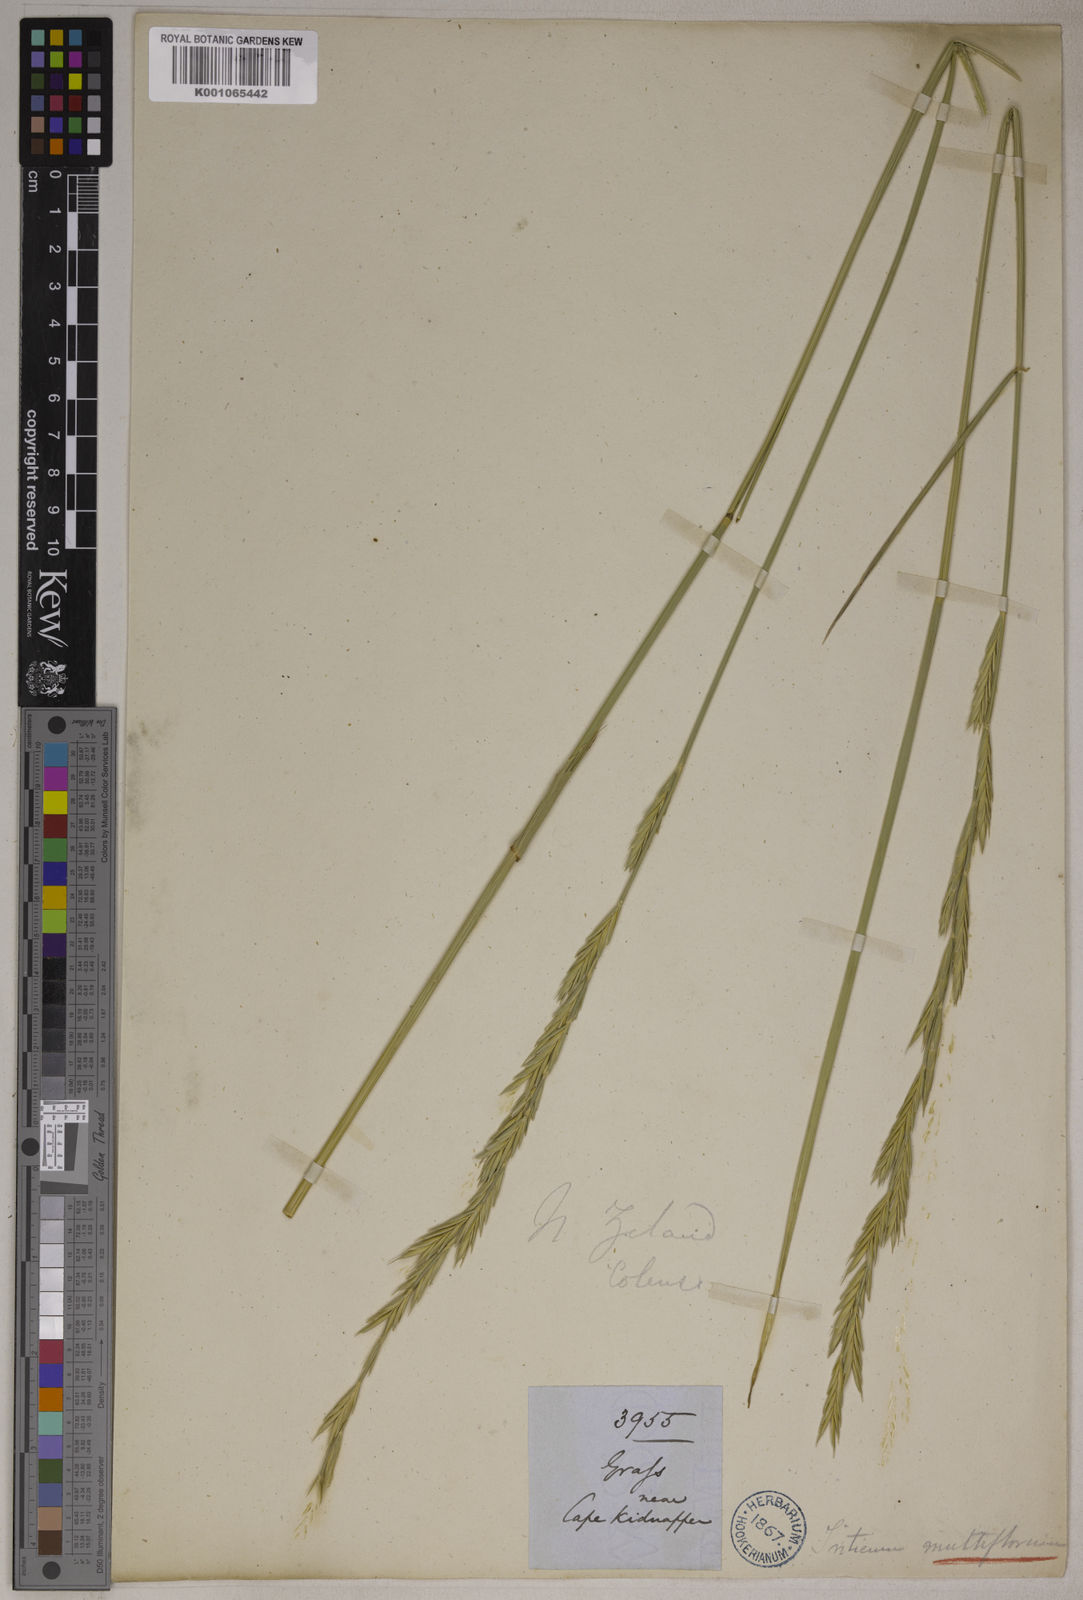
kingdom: Plantae
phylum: Tracheophyta
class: Liliopsida
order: Poales
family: Poaceae
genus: Elymus
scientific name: Elymus
